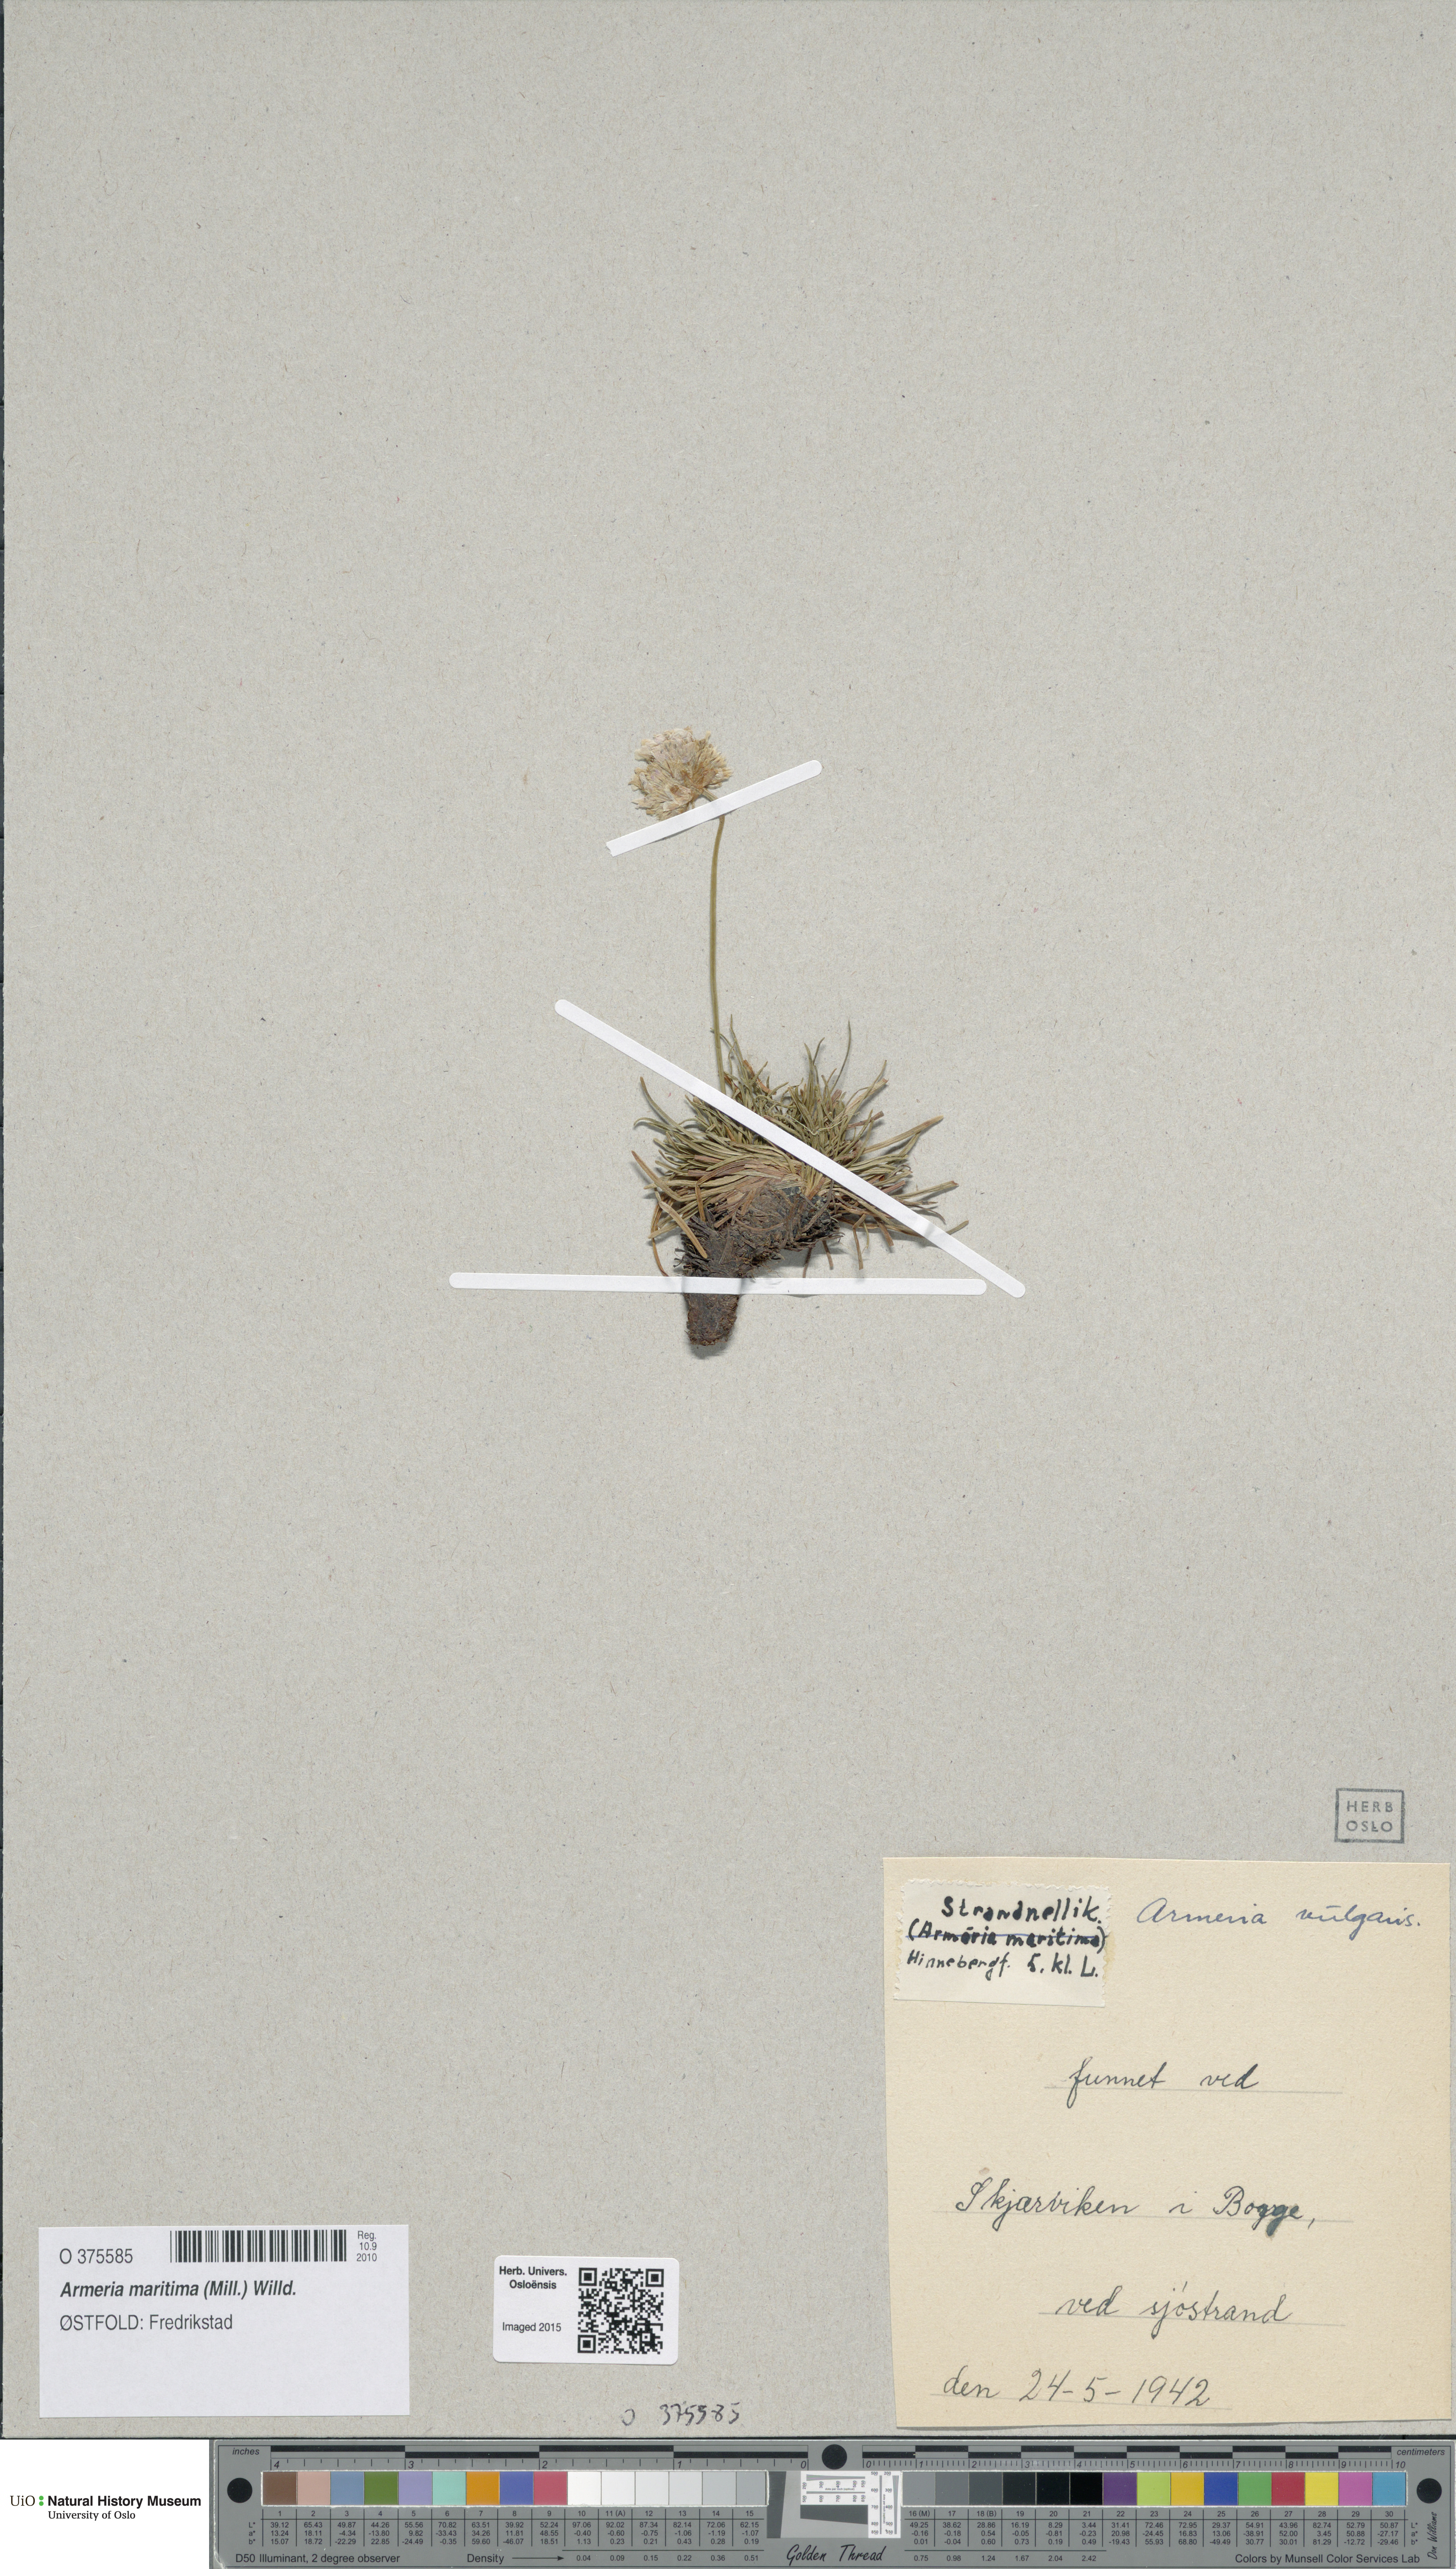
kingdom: Plantae
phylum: Tracheophyta
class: Magnoliopsida
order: Caryophyllales
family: Plumbaginaceae
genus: Armeria
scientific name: Armeria maritima
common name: Thrift
